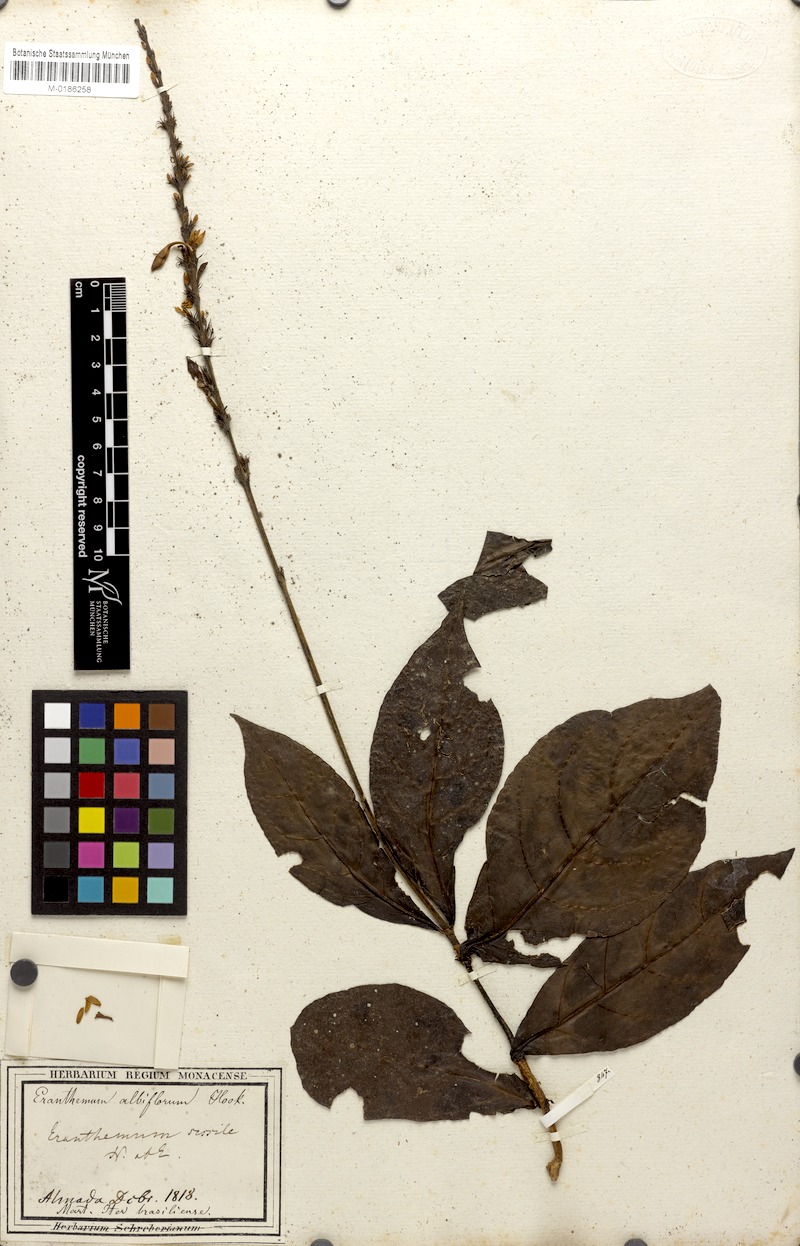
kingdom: Plantae
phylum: Tracheophyta
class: Magnoliopsida
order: Lamiales
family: Acanthaceae
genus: Pseuderanthemum
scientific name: Pseuderanthemum albiflorum
